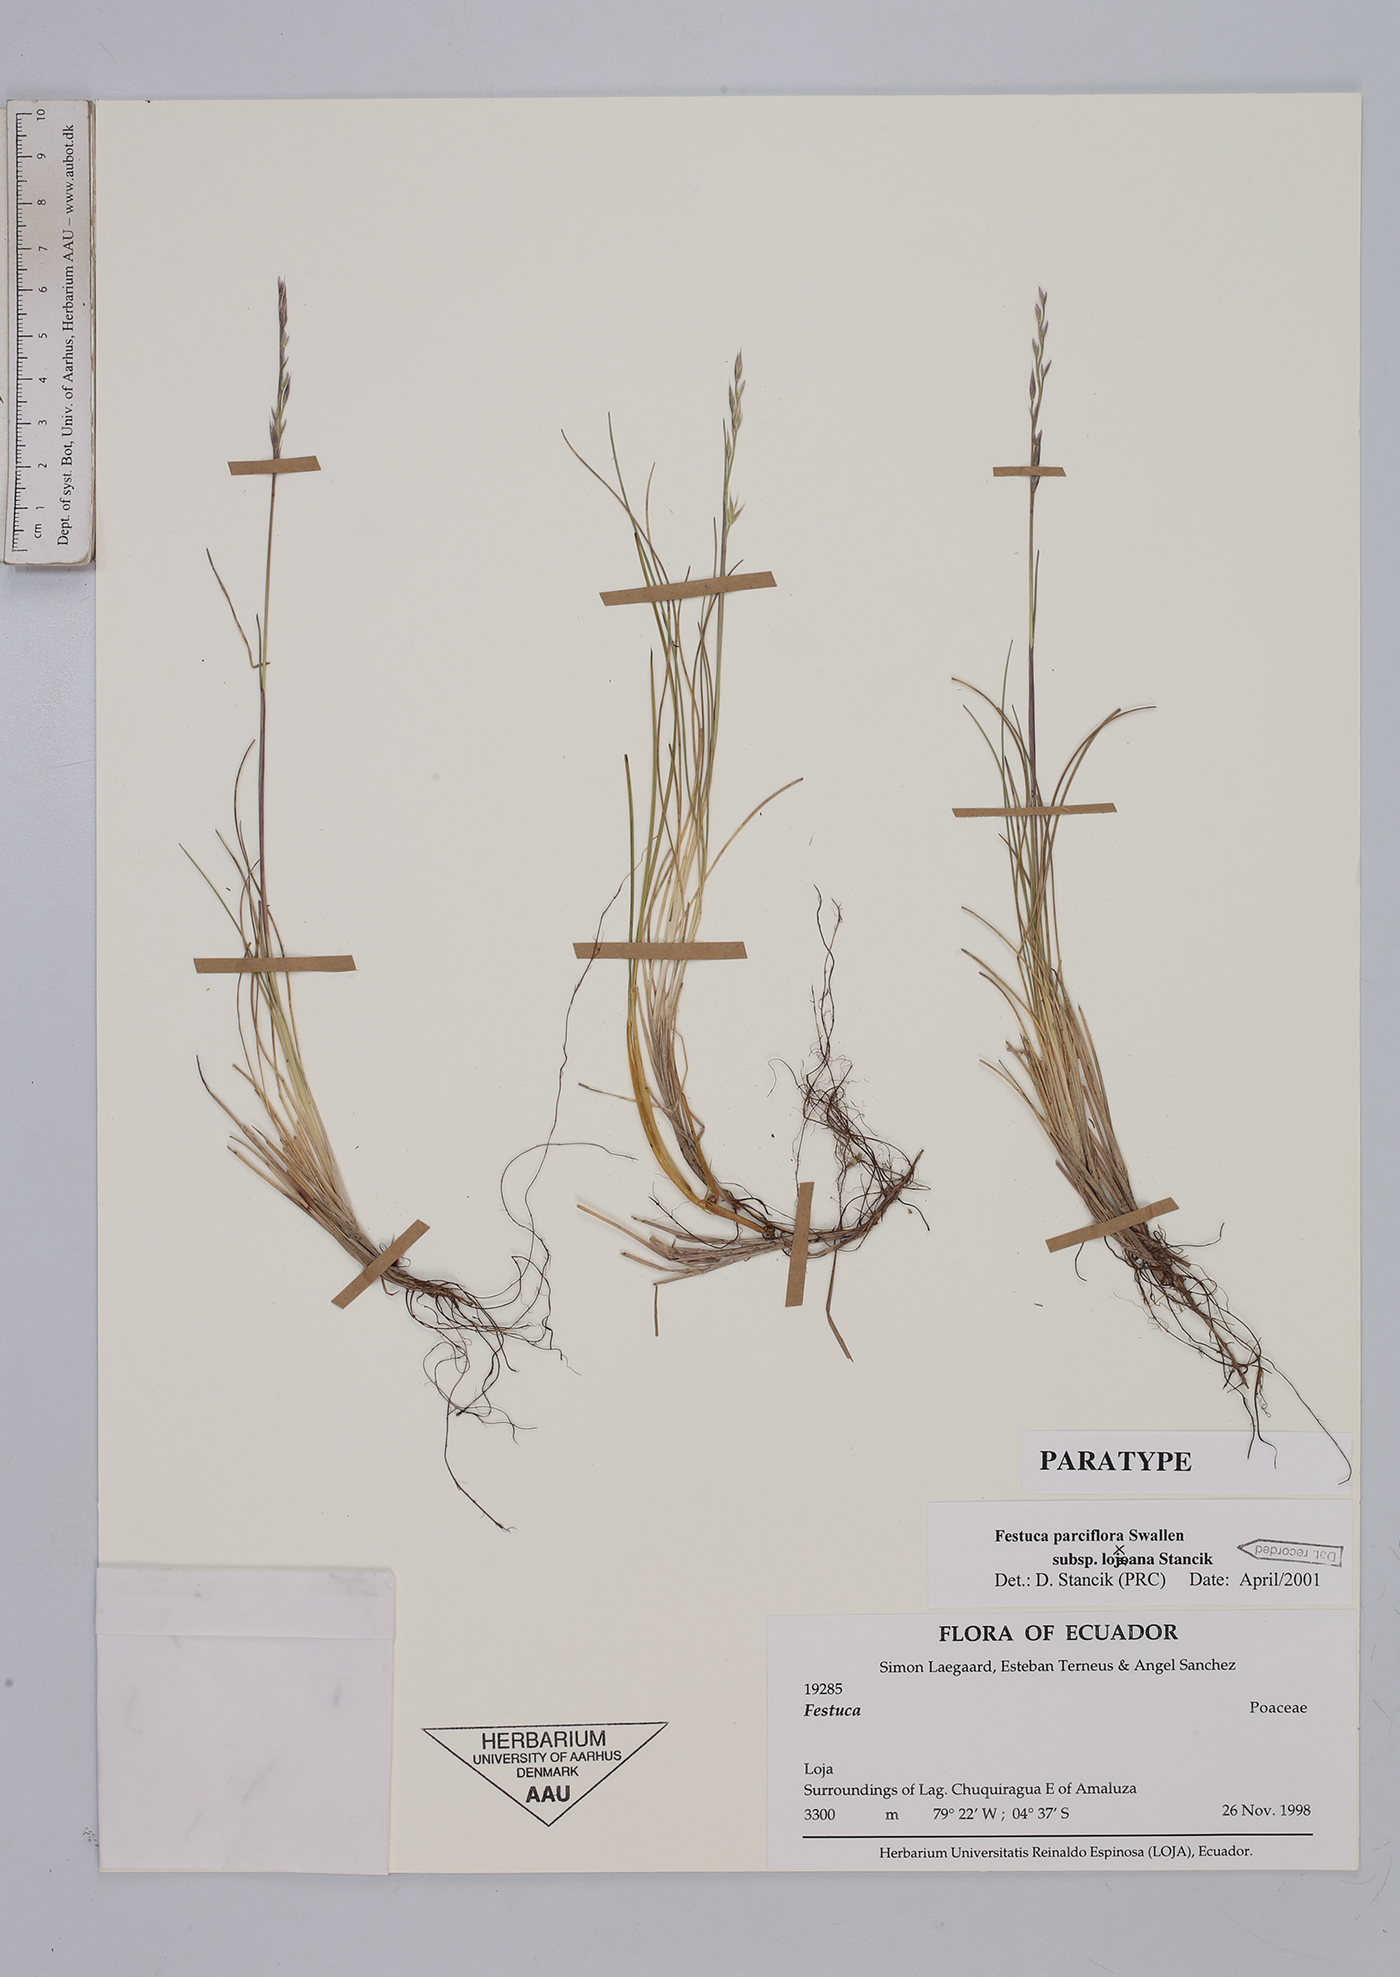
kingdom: Plantae
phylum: Tracheophyta
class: Liliopsida
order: Poales
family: Poaceae
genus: Festuca
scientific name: Festuca parciflora
